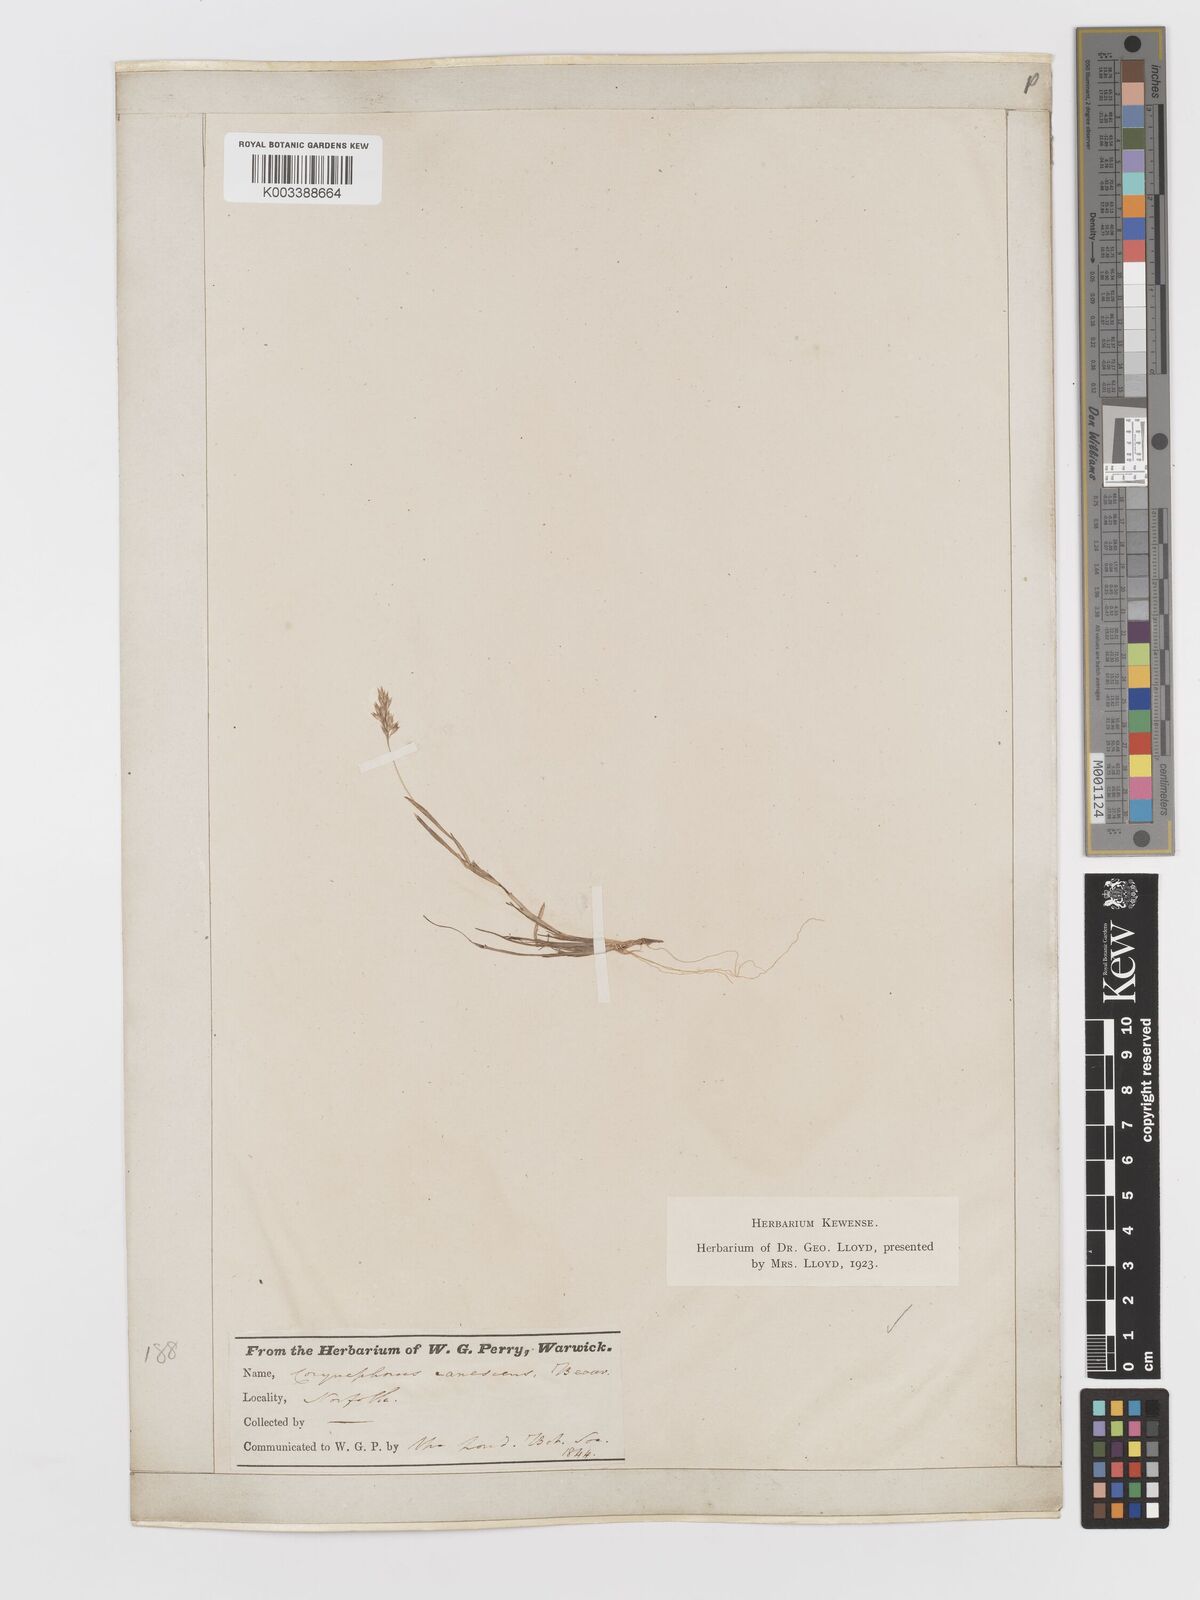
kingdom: Plantae
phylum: Tracheophyta
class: Liliopsida
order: Poales
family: Poaceae
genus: Corynephorus
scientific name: Corynephorus canescens
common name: Grey hair-grass
